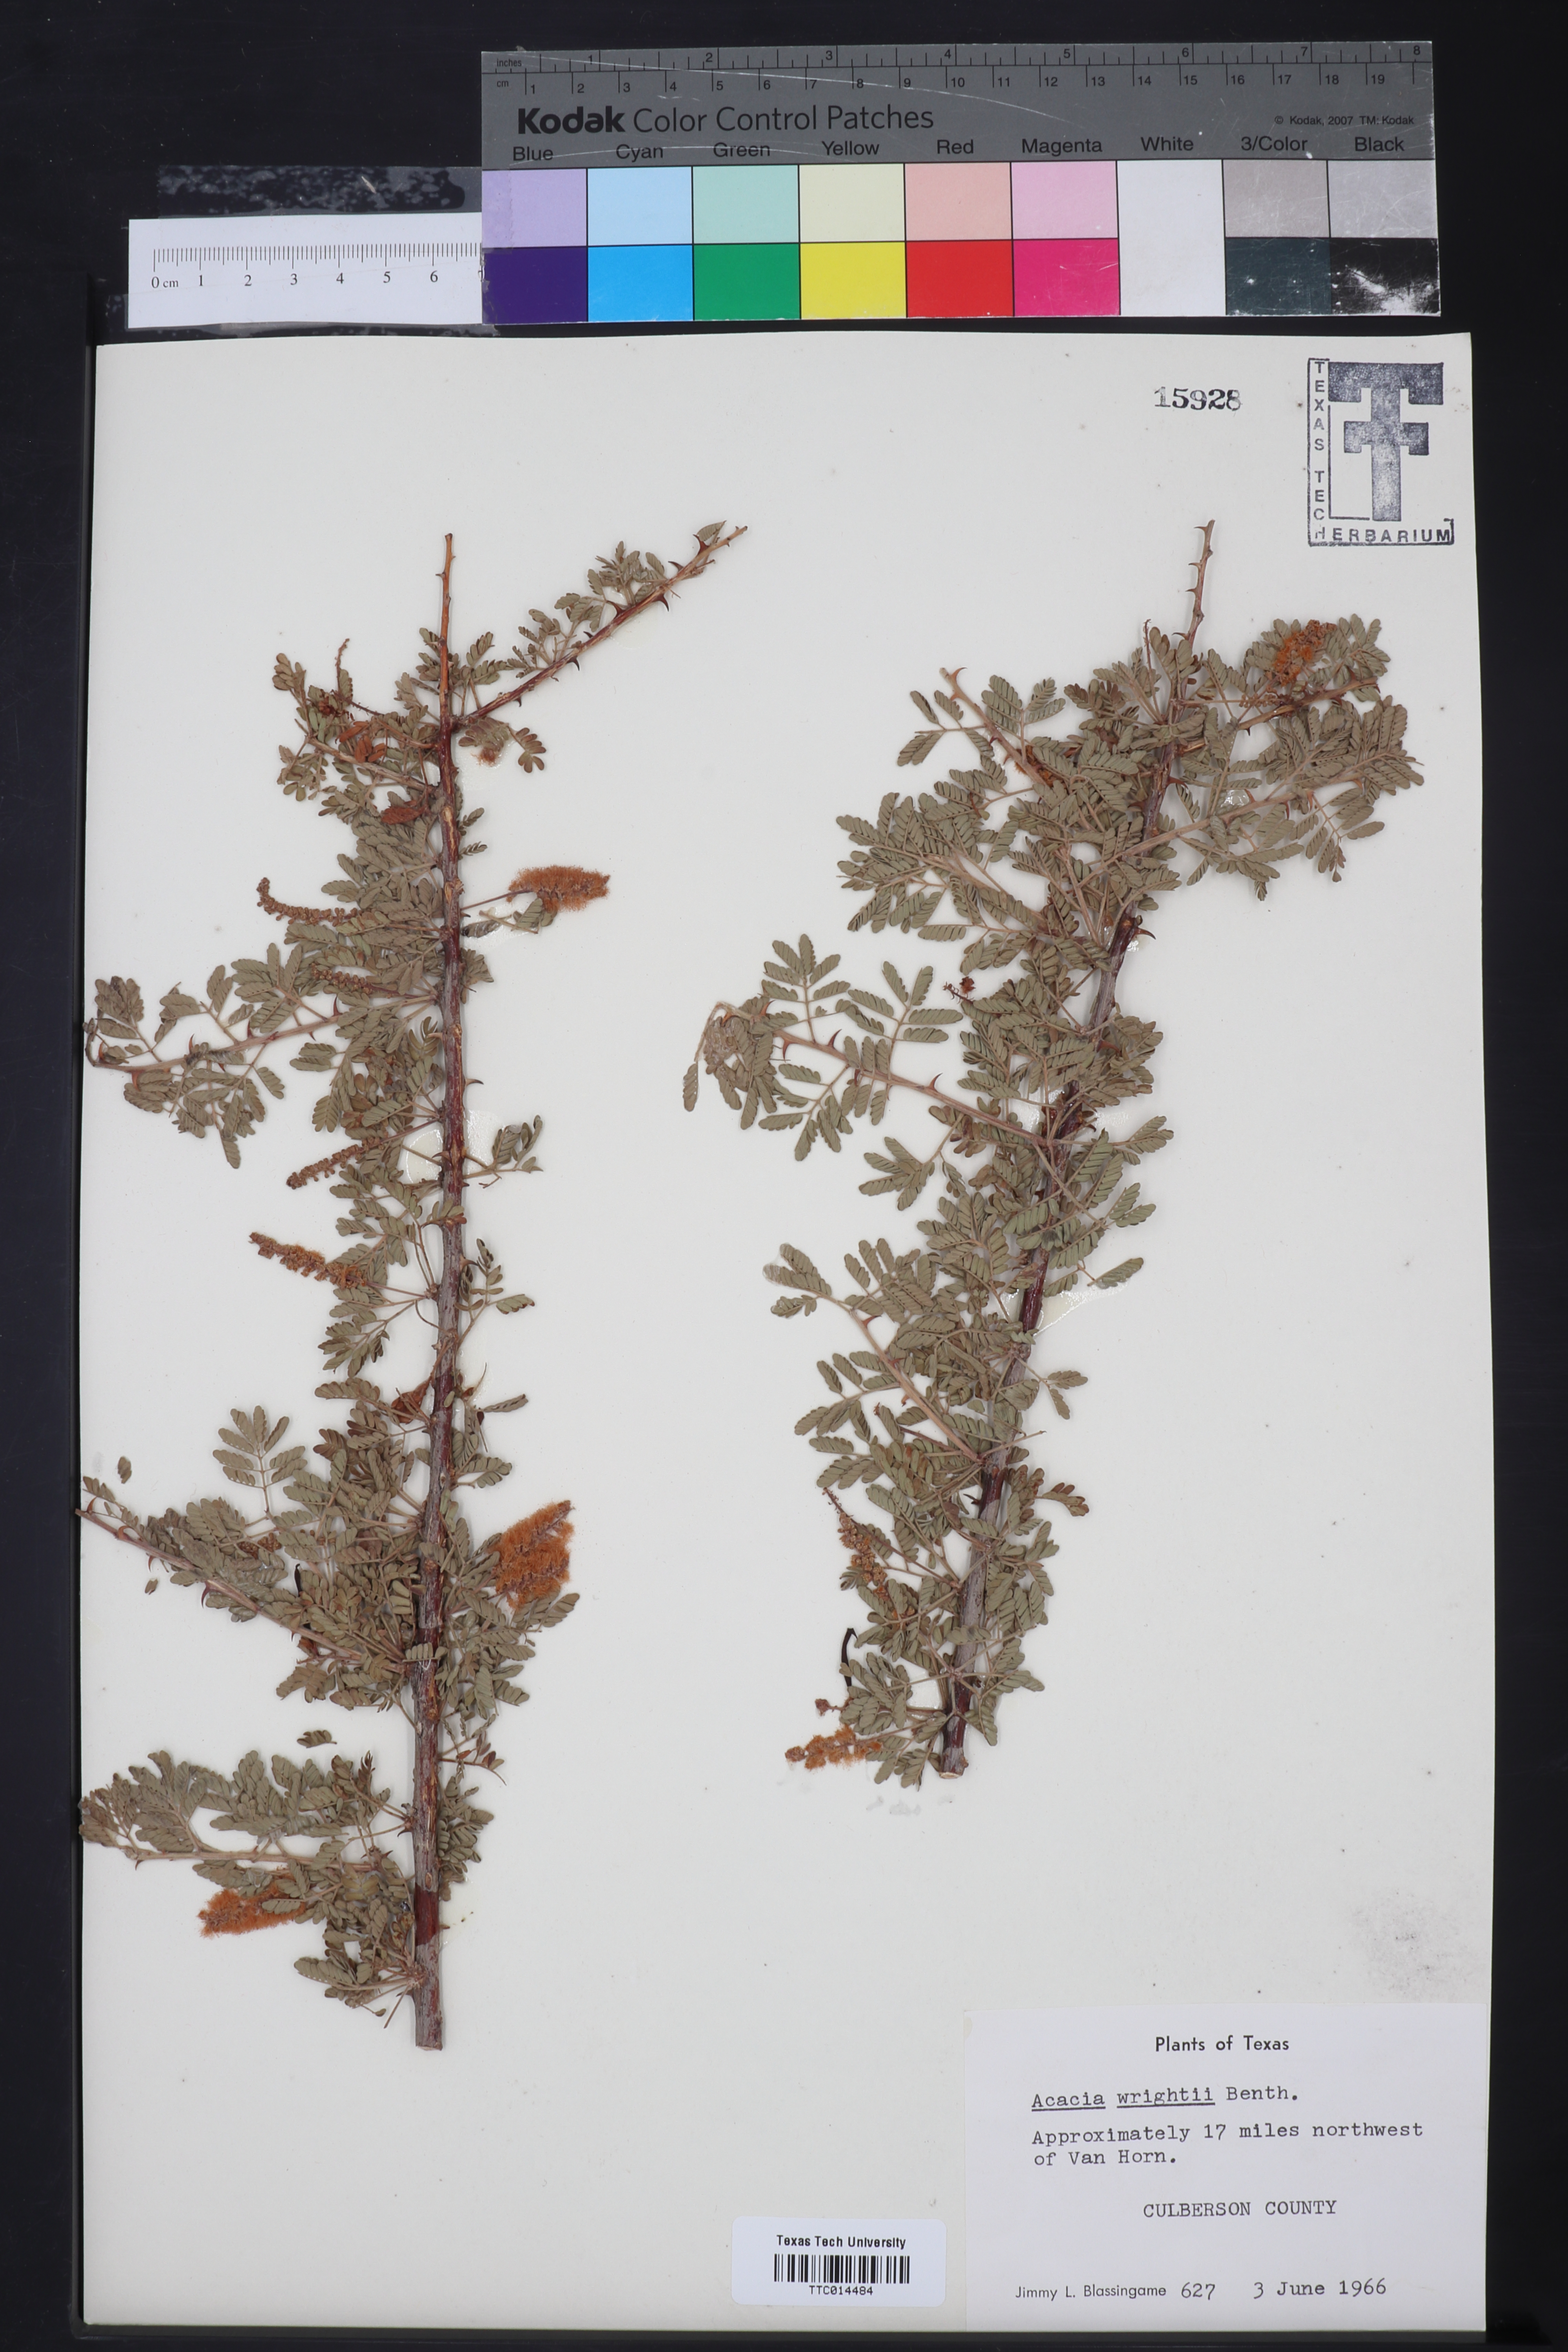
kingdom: Plantae
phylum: Tracheophyta
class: Magnoliopsida
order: Fabales
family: Fabaceae
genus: Senegalia
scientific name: Senegalia wrightii
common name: Texas cat's-claw
